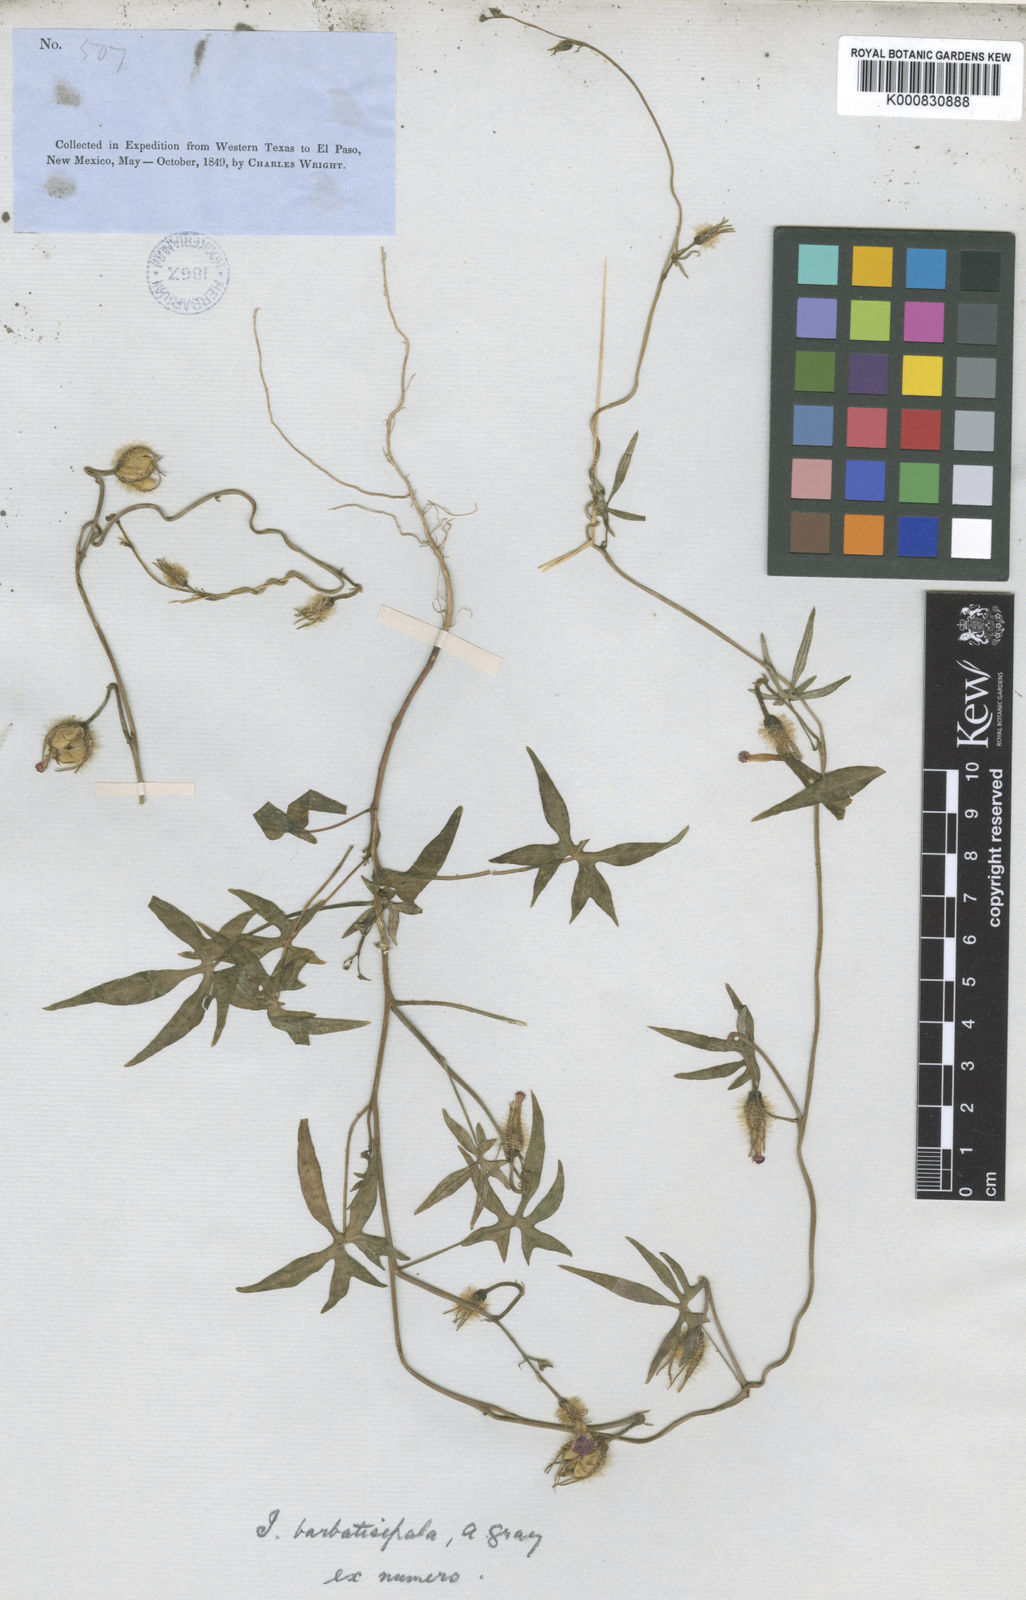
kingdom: Plantae
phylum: Tracheophyta
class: Magnoliopsida
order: Solanales
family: Convolvulaceae
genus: Ipomoea
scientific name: Ipomoea barbatisepala
